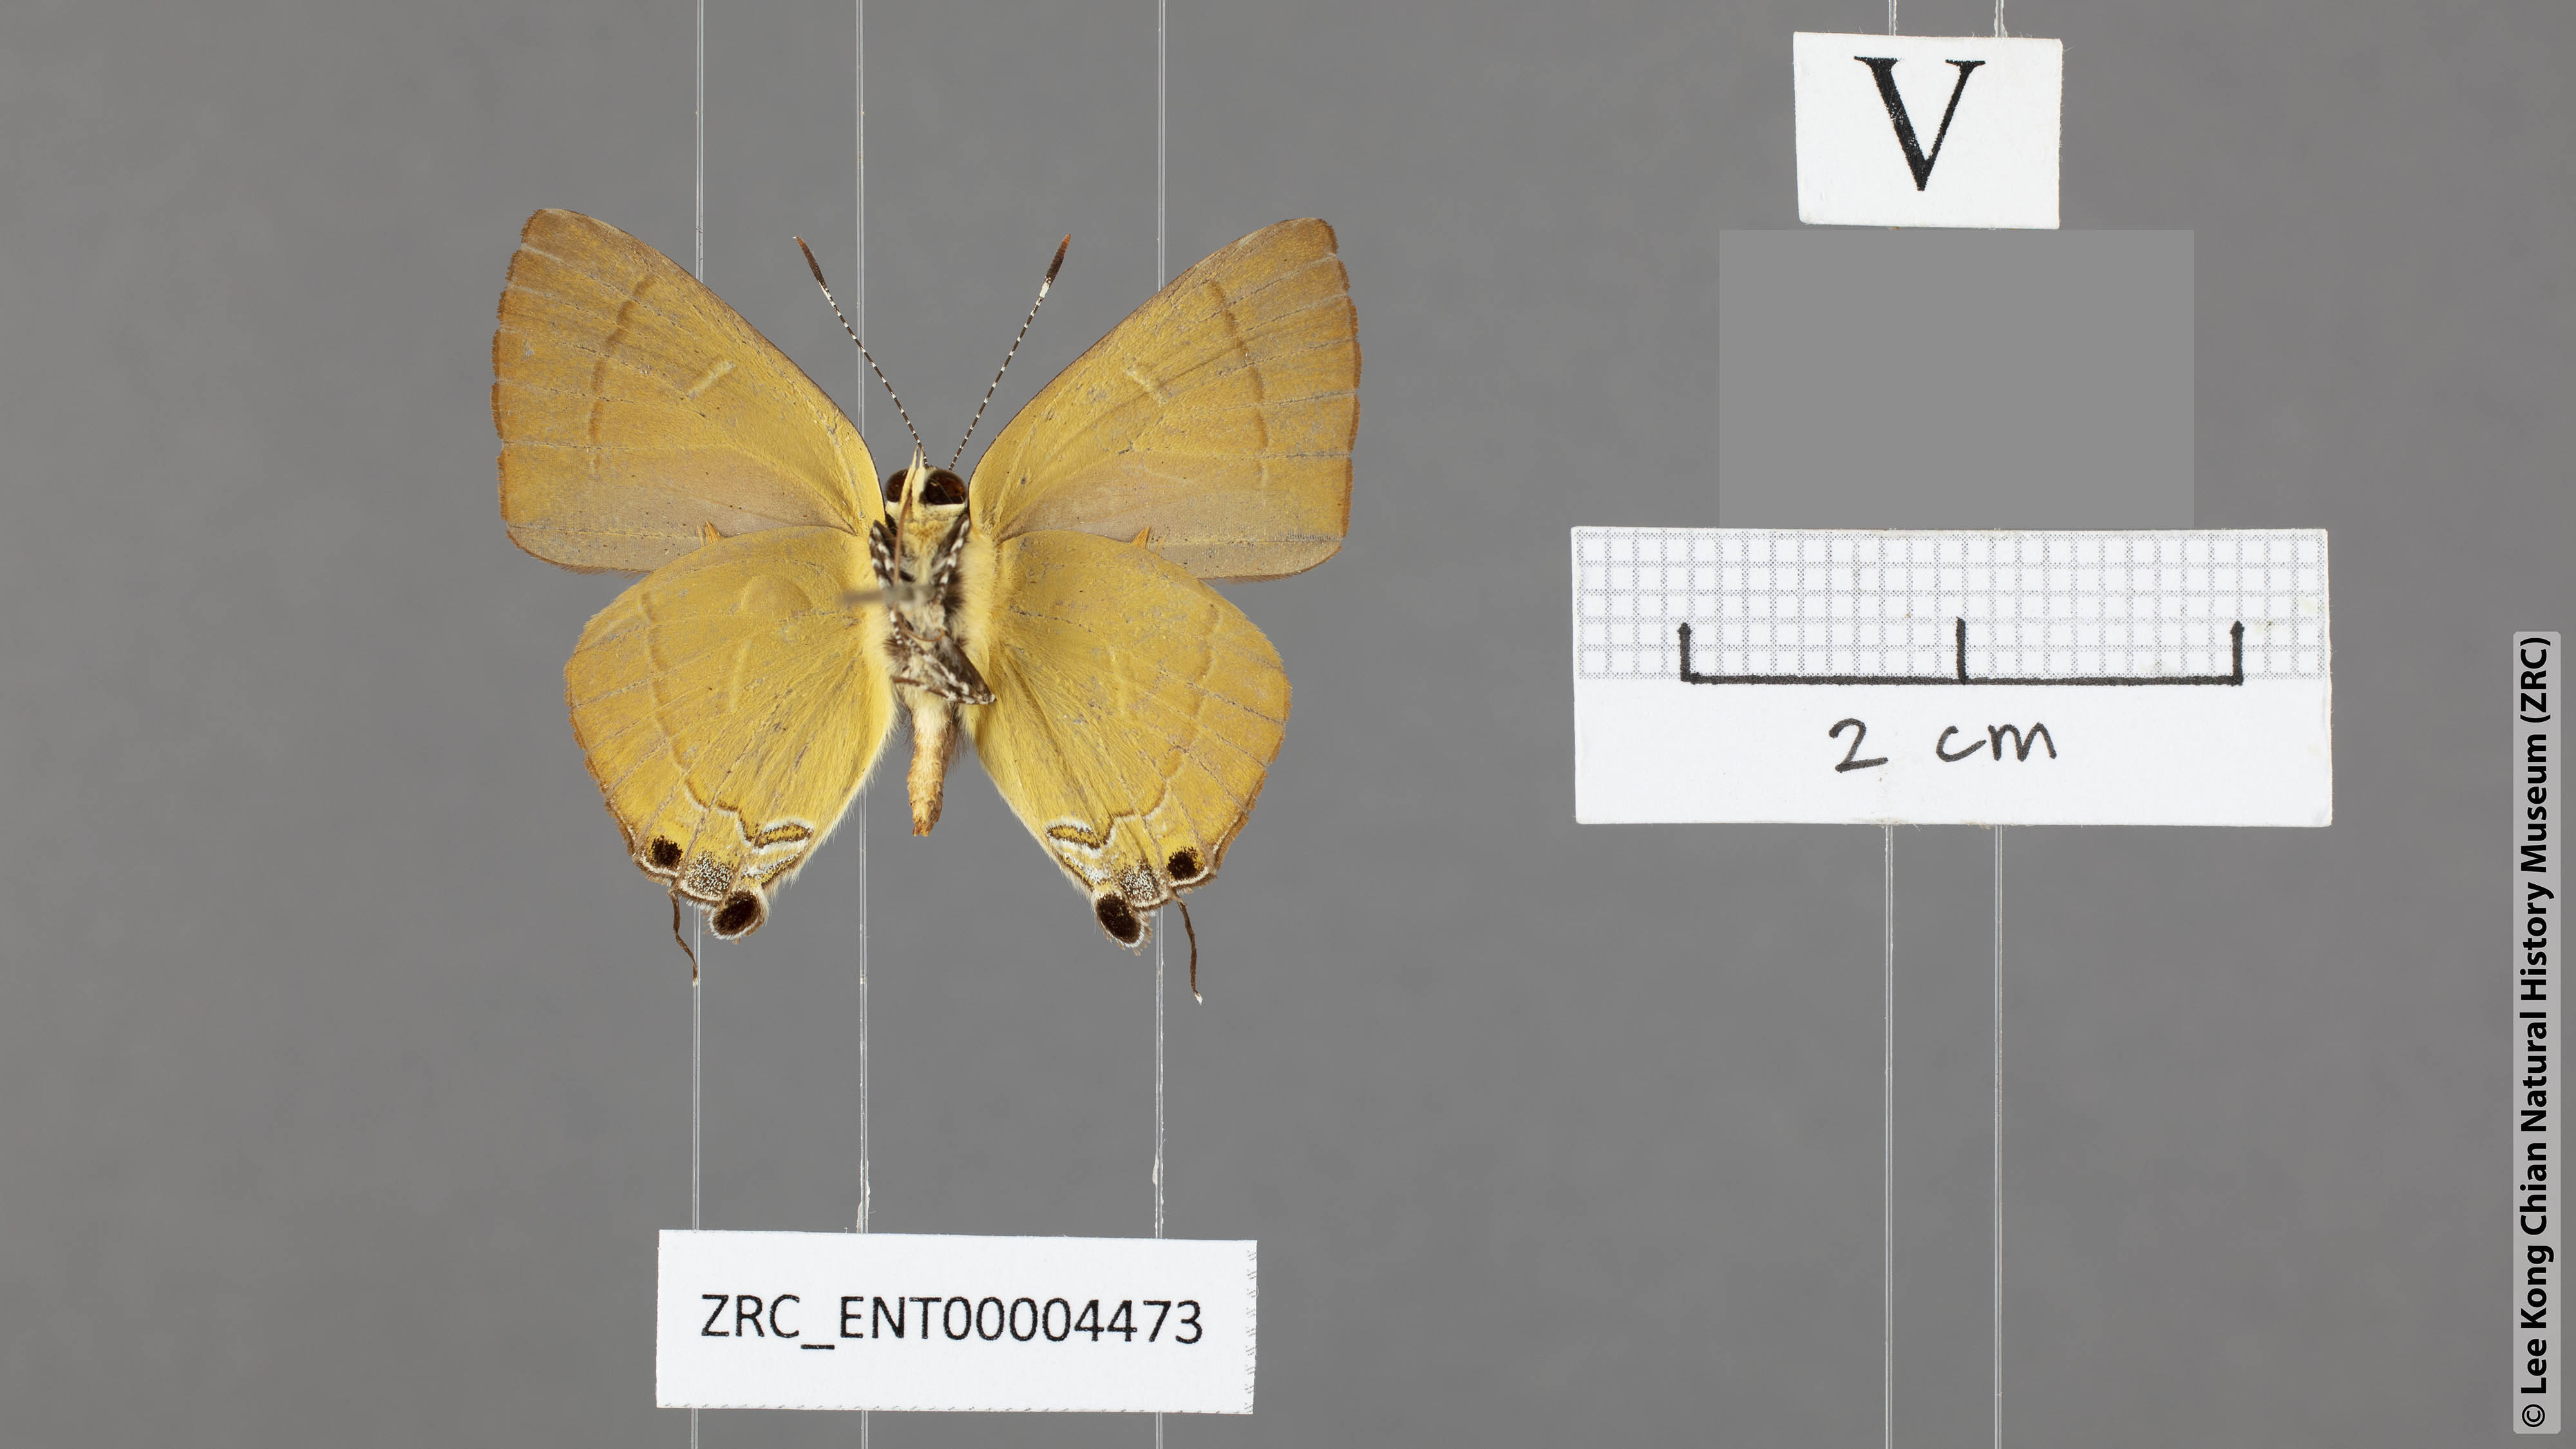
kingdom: Animalia
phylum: Arthropoda
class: Insecta
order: Lepidoptera
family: Lycaenidae
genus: Rapala
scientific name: Rapala damona
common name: Malay red flash
